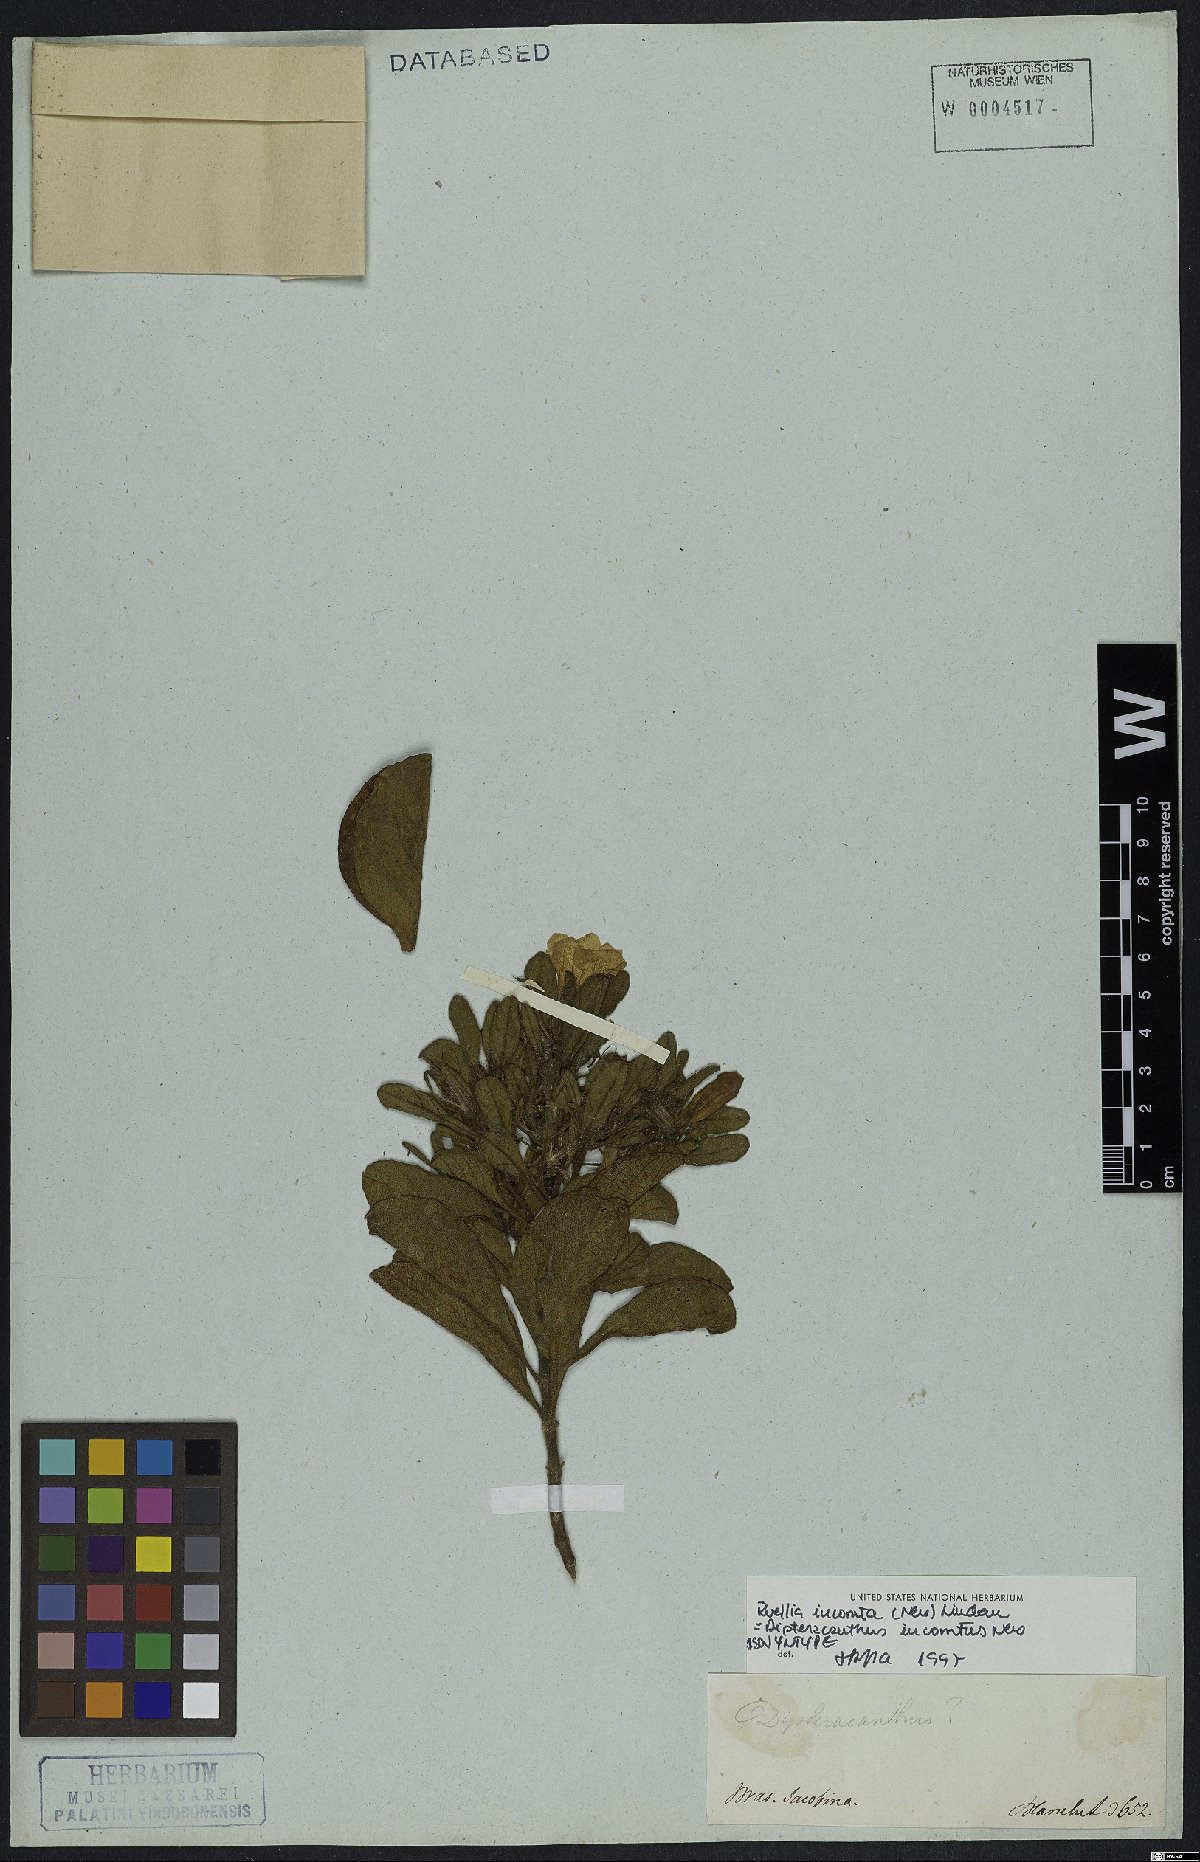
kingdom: Plantae
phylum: Tracheophyta
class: Magnoliopsida
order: Lamiales
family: Acanthaceae
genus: Ruellia
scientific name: Ruellia incomta
